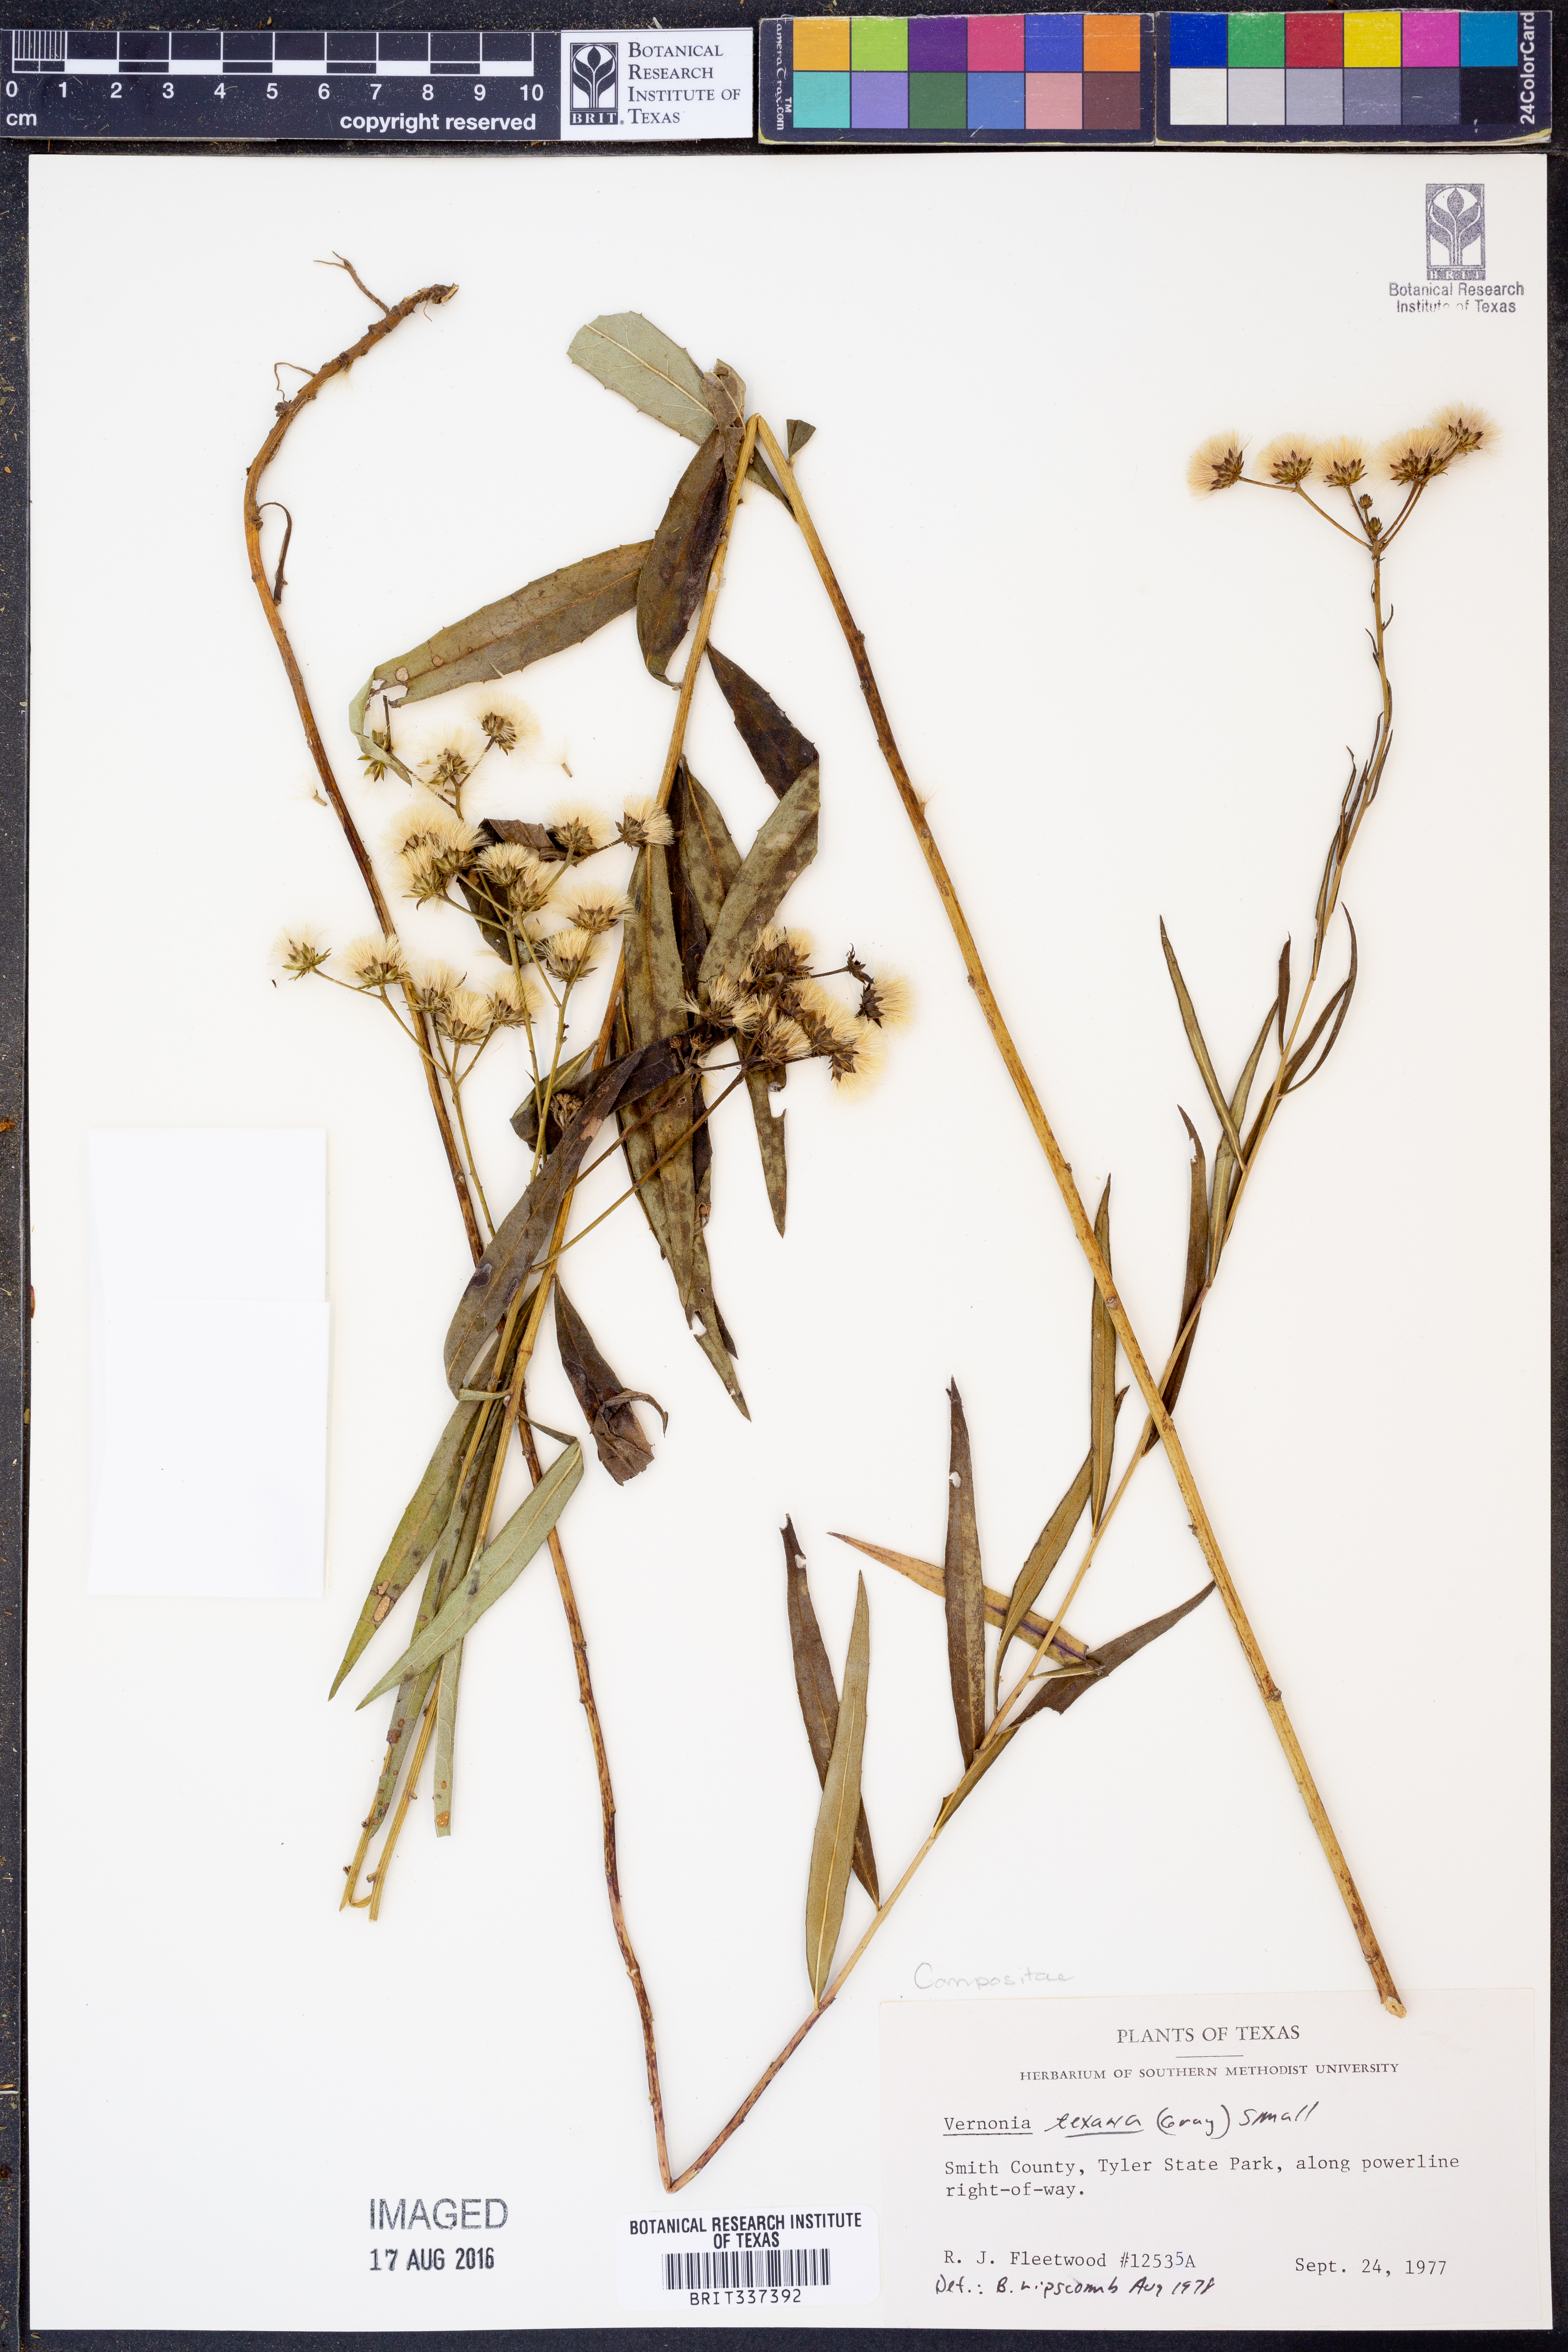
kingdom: Plantae
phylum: Tracheophyta
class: Magnoliopsida
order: Asterales
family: Asteraceae
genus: Vernonia
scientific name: Vernonia texana
